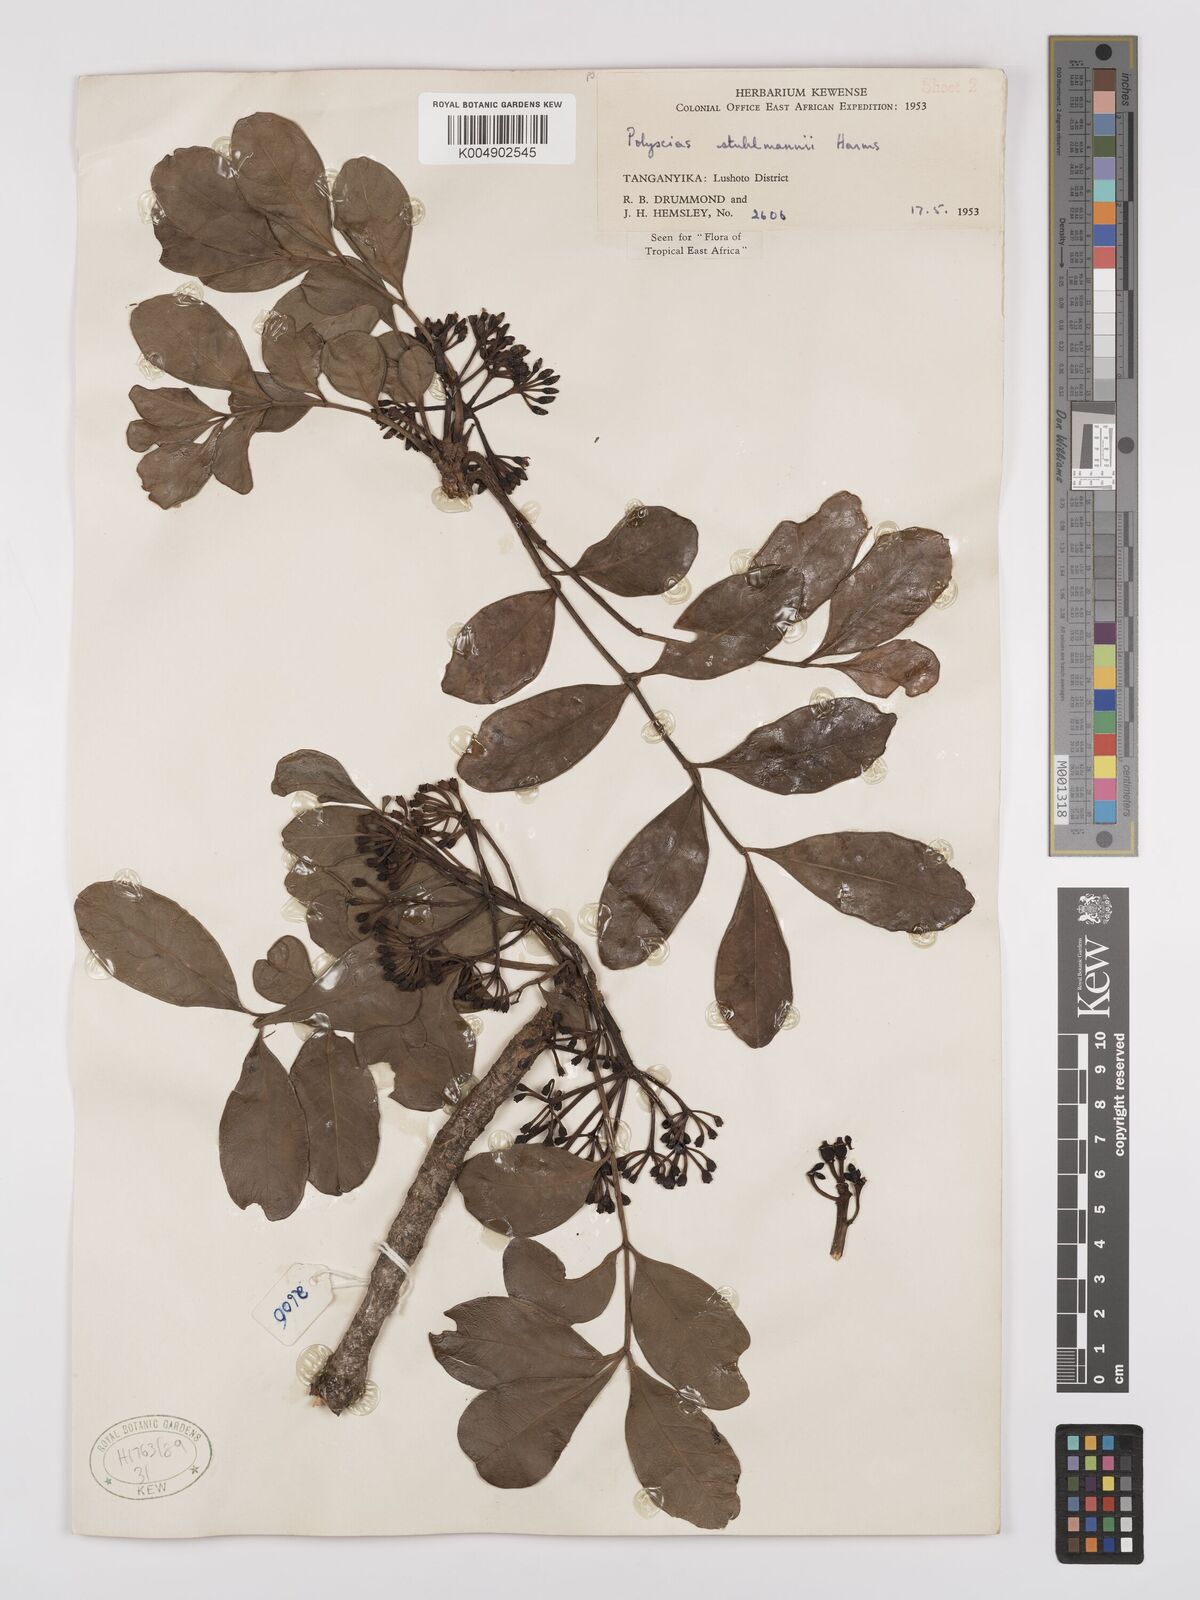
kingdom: Plantae
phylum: Tracheophyta
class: Magnoliopsida
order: Apiales
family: Araliaceae
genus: Polyscias
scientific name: Polyscias stuhlmannii
